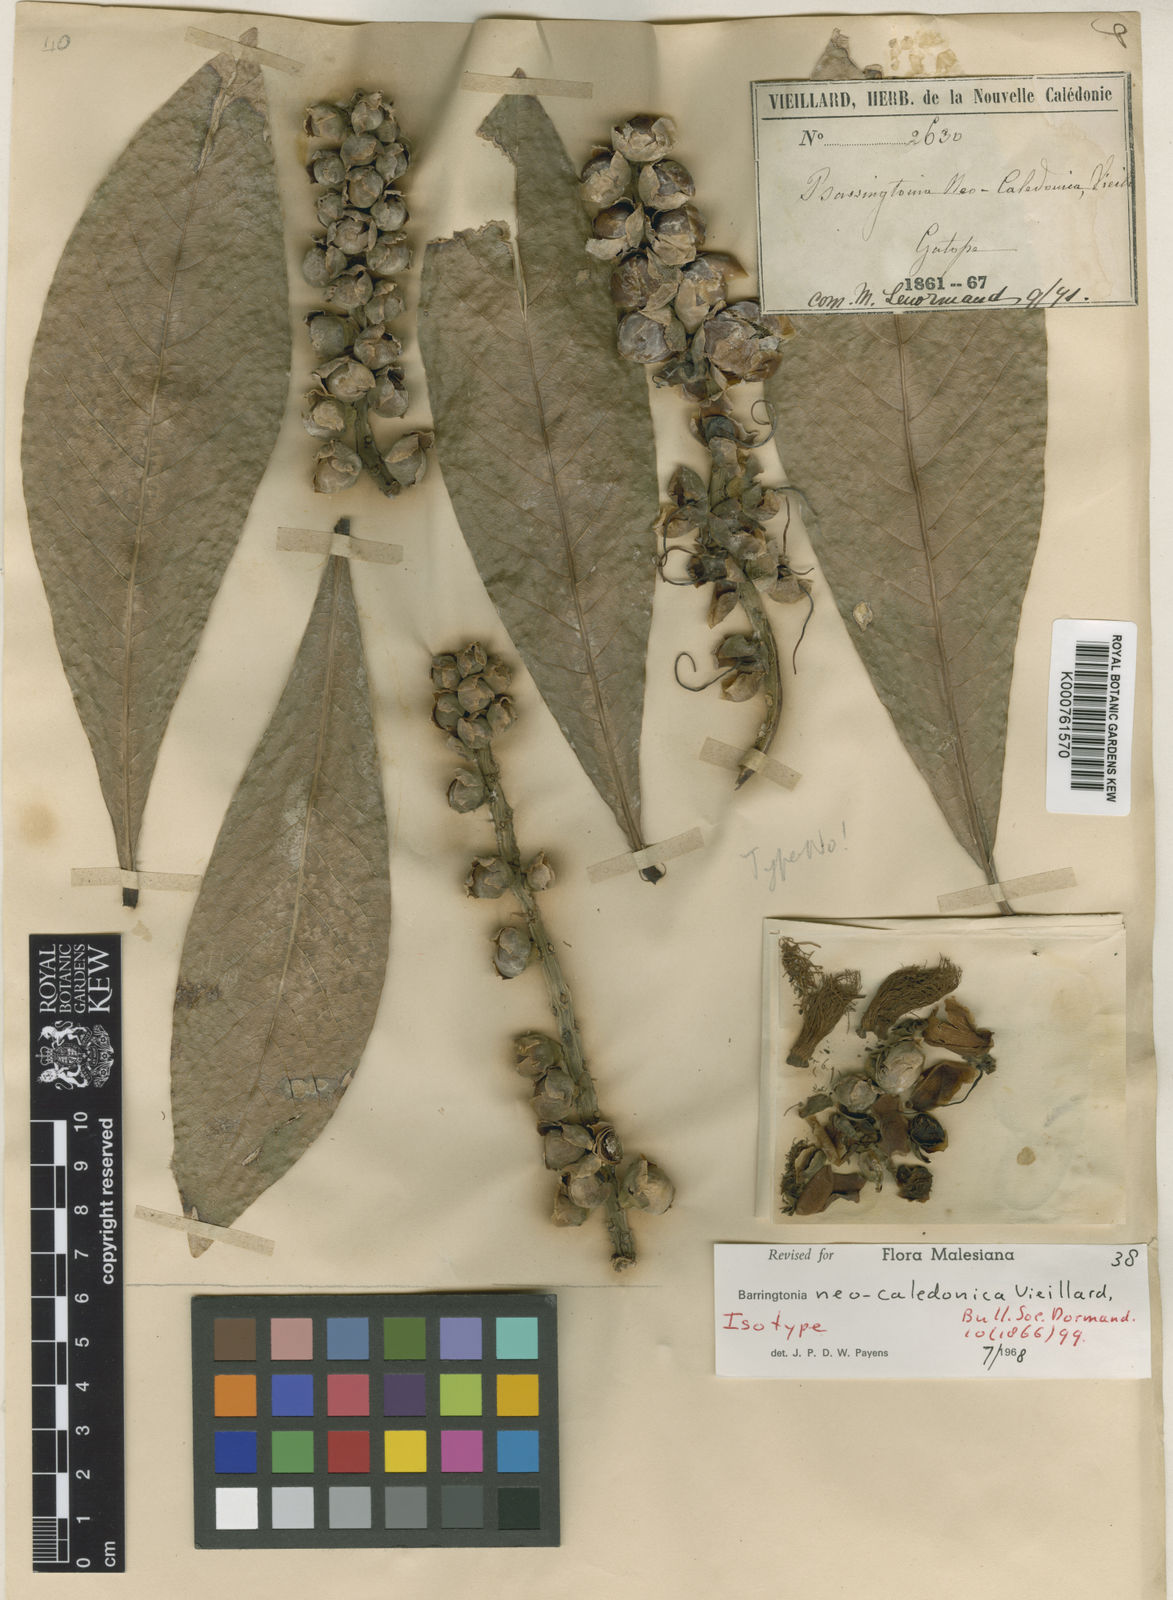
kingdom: Plantae
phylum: Tracheophyta
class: Magnoliopsida
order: Ericales
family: Lecythidaceae
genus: Barringtonia
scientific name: Barringtonia neocaledonica
